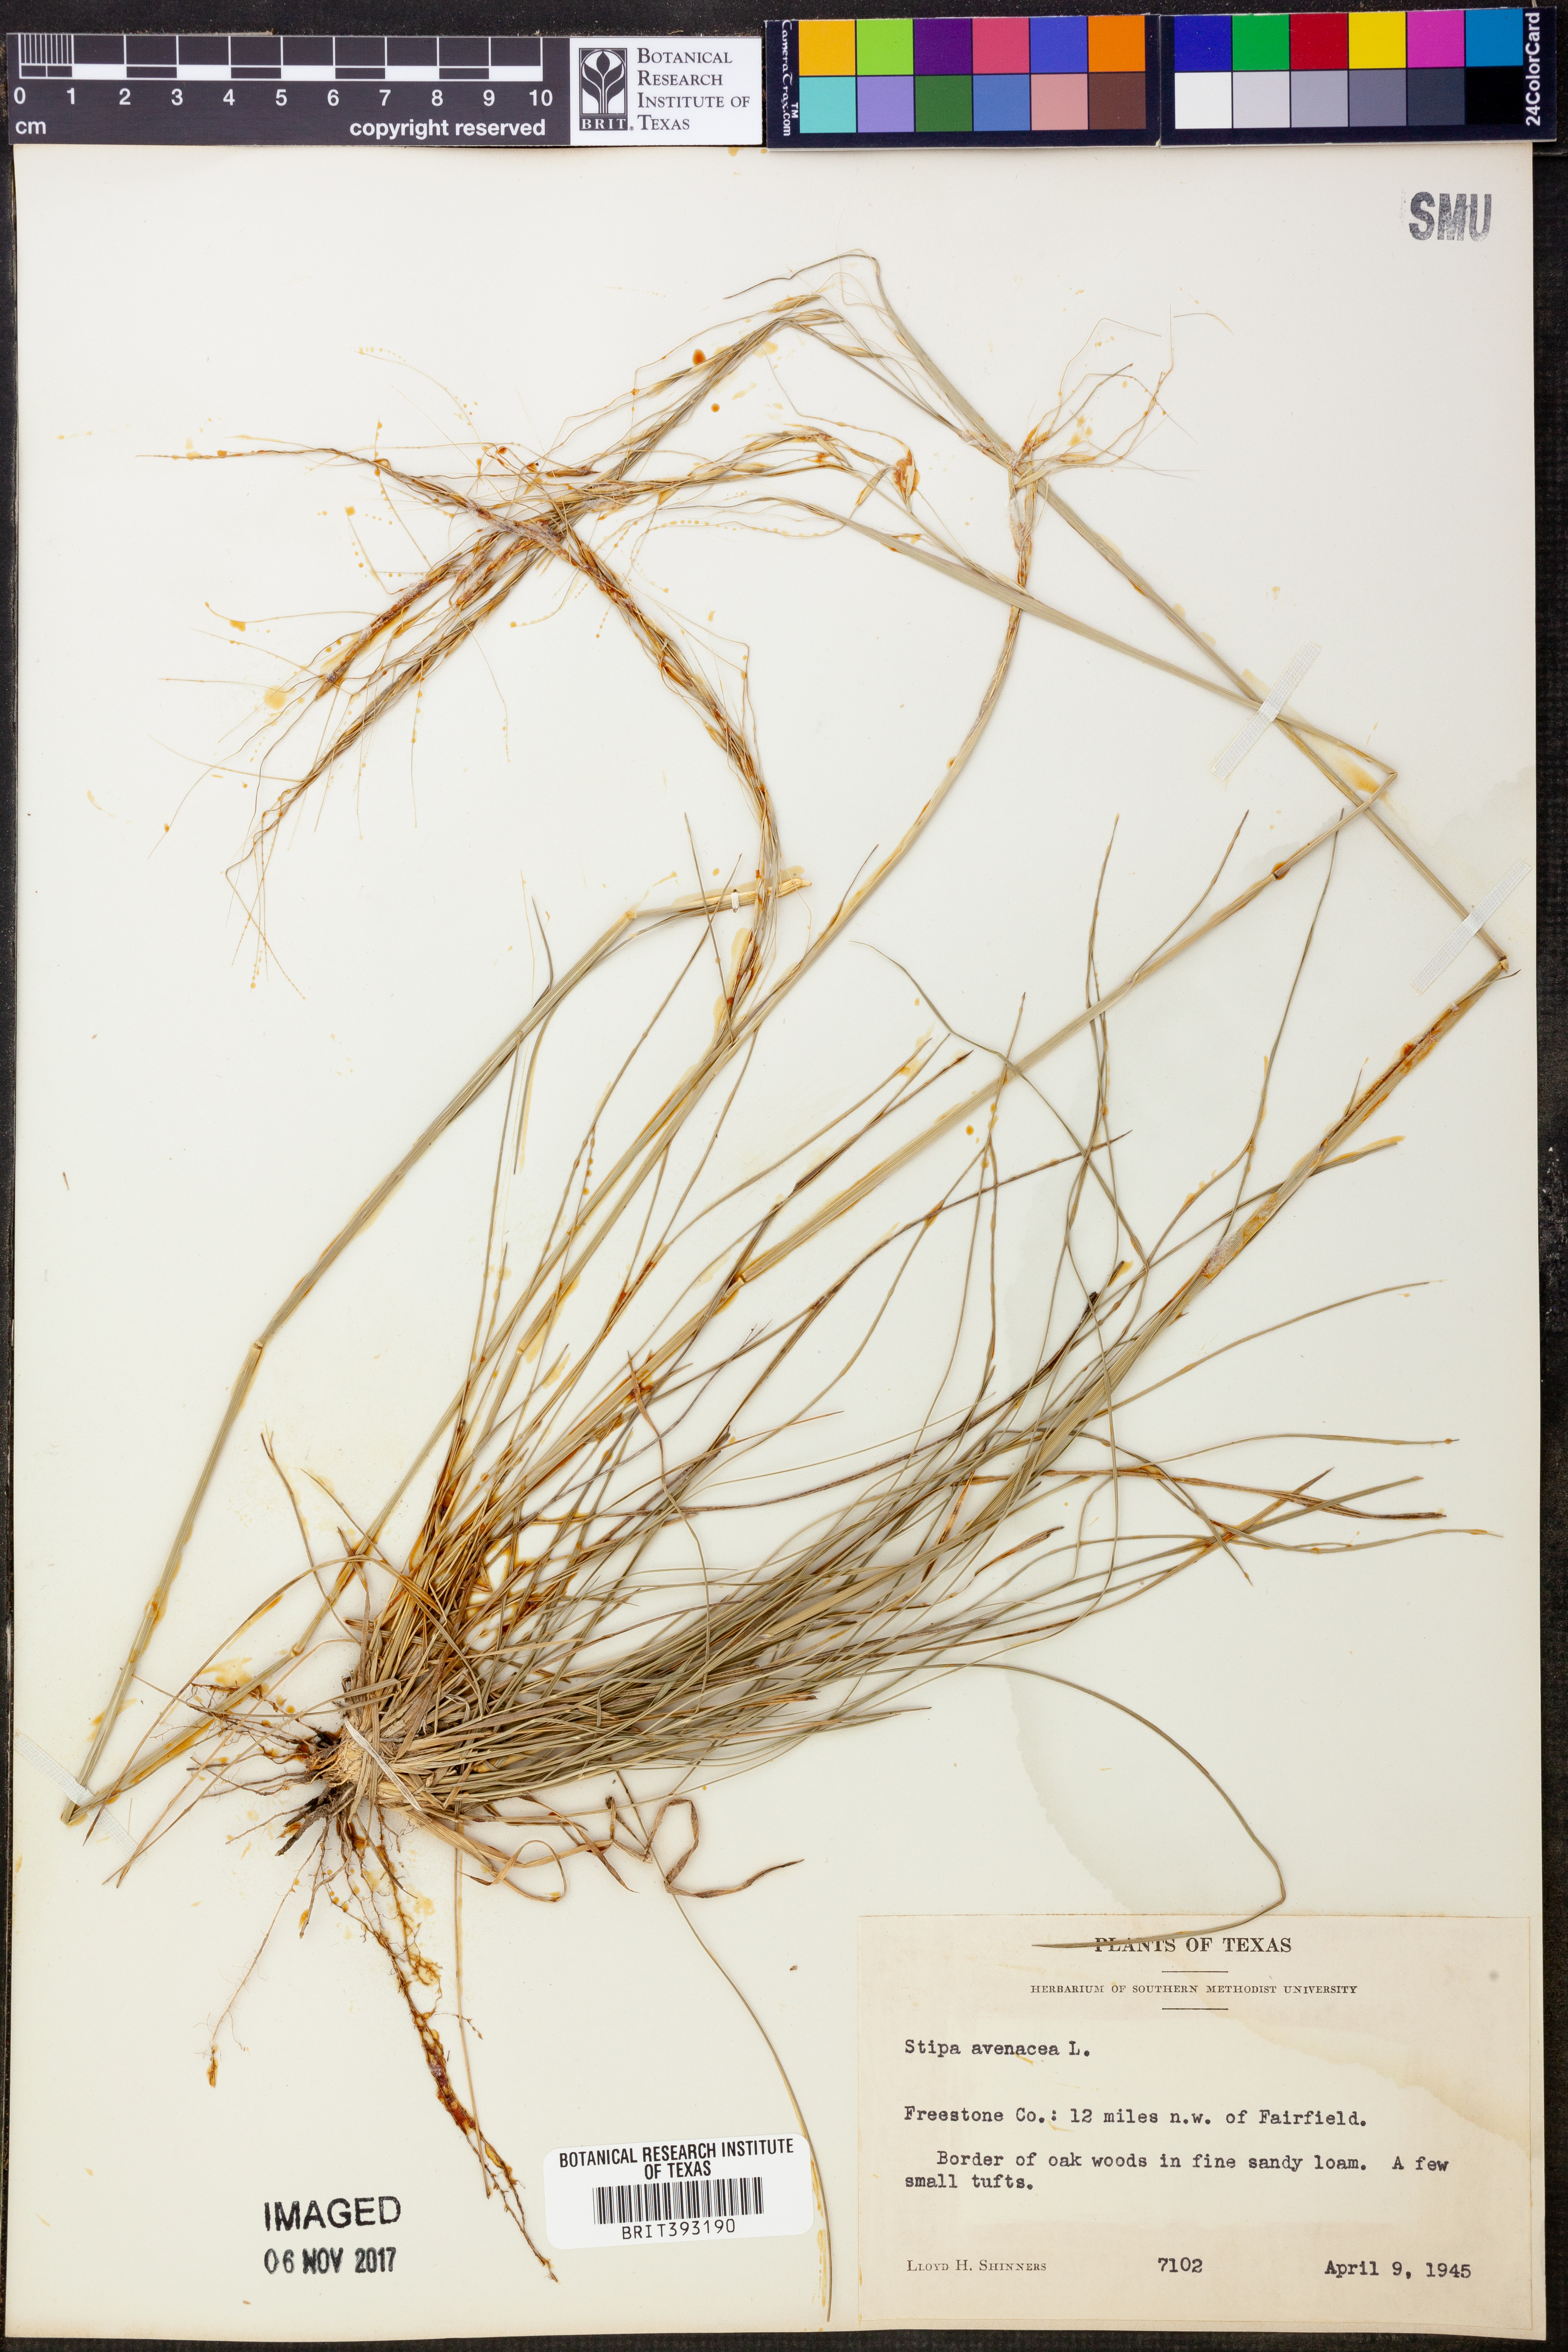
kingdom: Plantae
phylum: Tracheophyta
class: Liliopsida
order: Poales
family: Poaceae
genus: Piptochaetium
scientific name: Piptochaetium avenaceum
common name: Black bunchgrass
